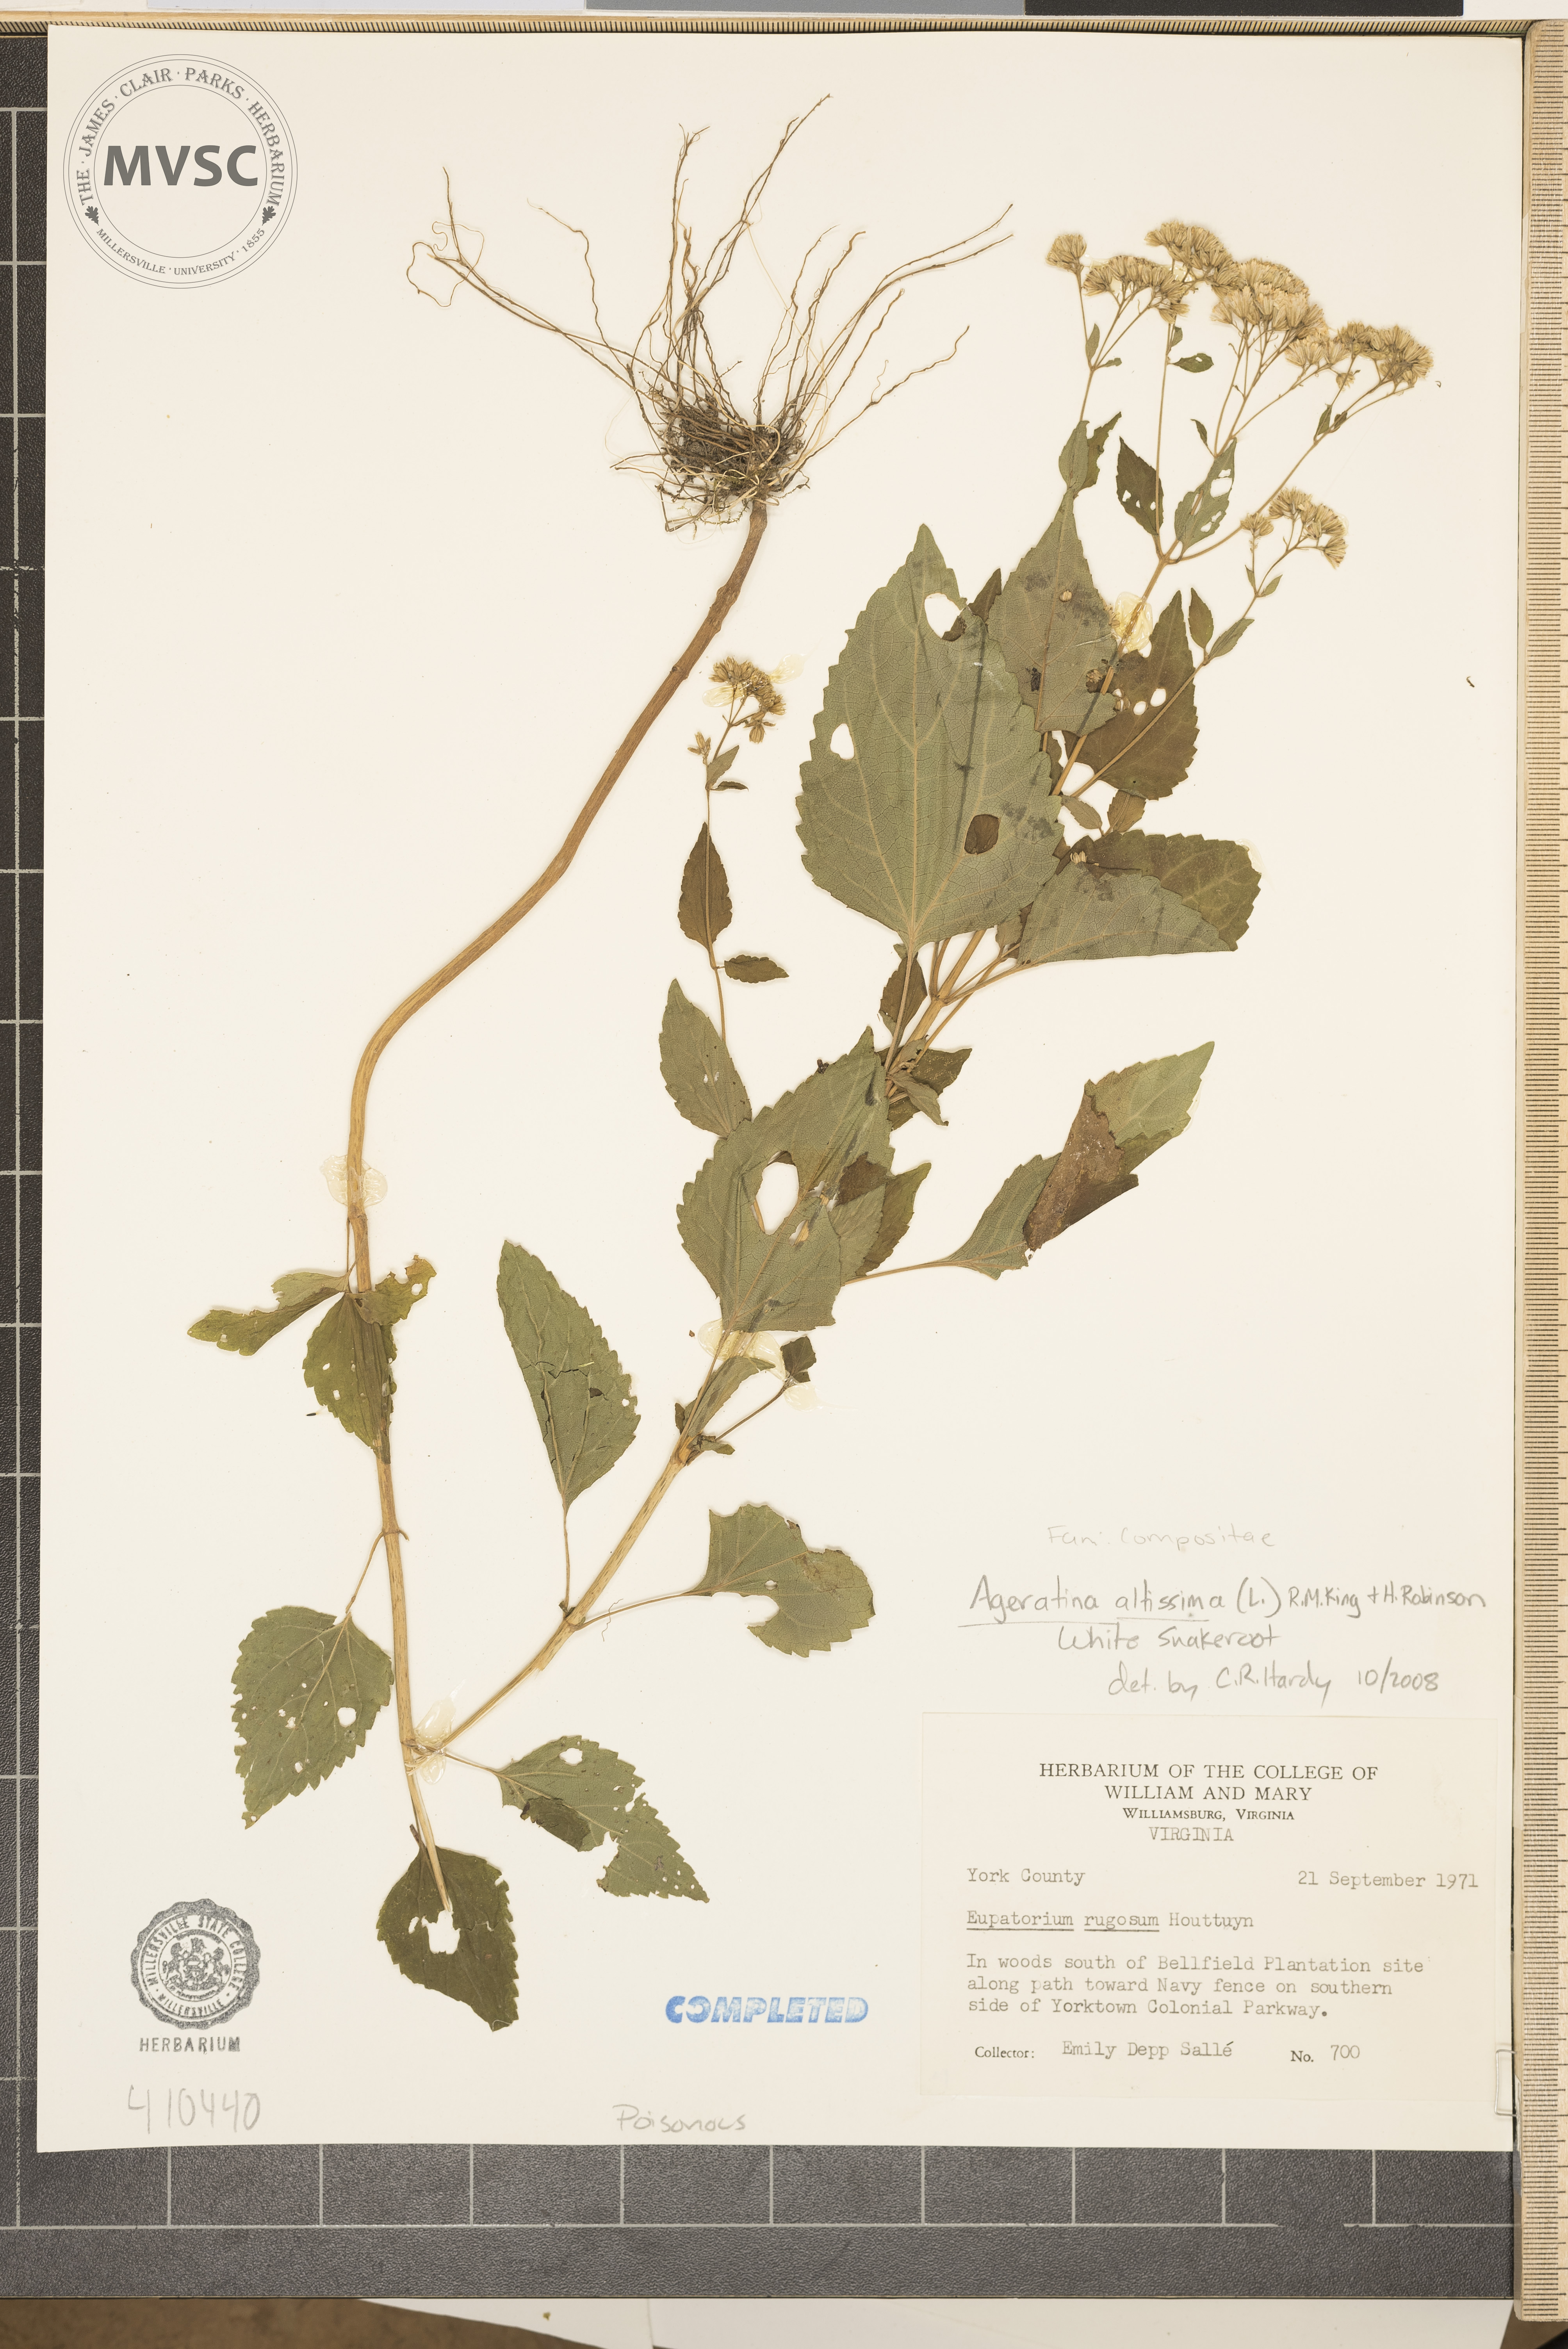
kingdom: Plantae
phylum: Tracheophyta
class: Magnoliopsida
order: Asterales
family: Asteraceae
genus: Ageratina
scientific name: Ageratina altissima
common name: White snakeroot
